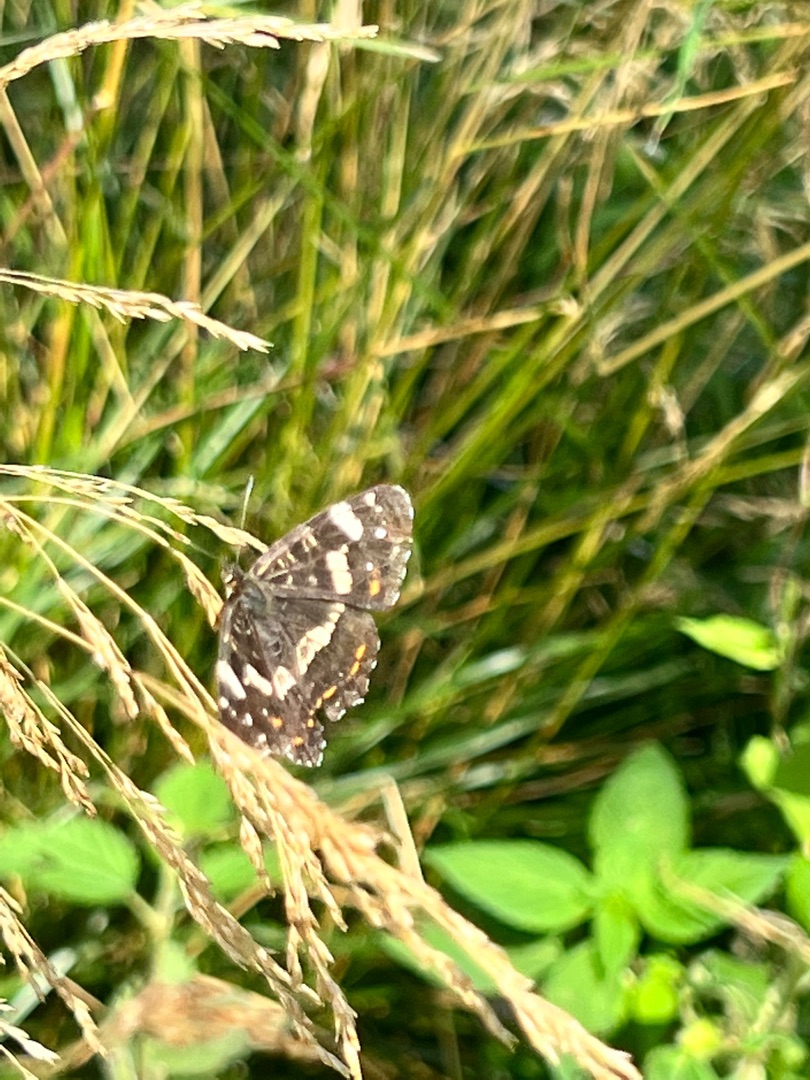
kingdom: Animalia
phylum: Arthropoda
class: Insecta
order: Lepidoptera
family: Nymphalidae
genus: Araschnia
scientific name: Araschnia levana
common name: Nældesommerfugl
